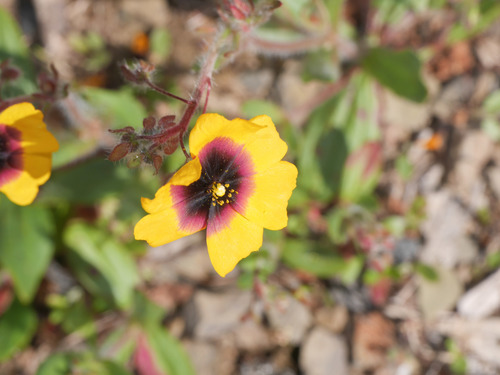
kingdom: Plantae
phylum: Tracheophyta
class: Magnoliopsida
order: Malvales
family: Cistaceae
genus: Tuberaria
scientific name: Tuberaria guttata
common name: Spotted rock-rose
